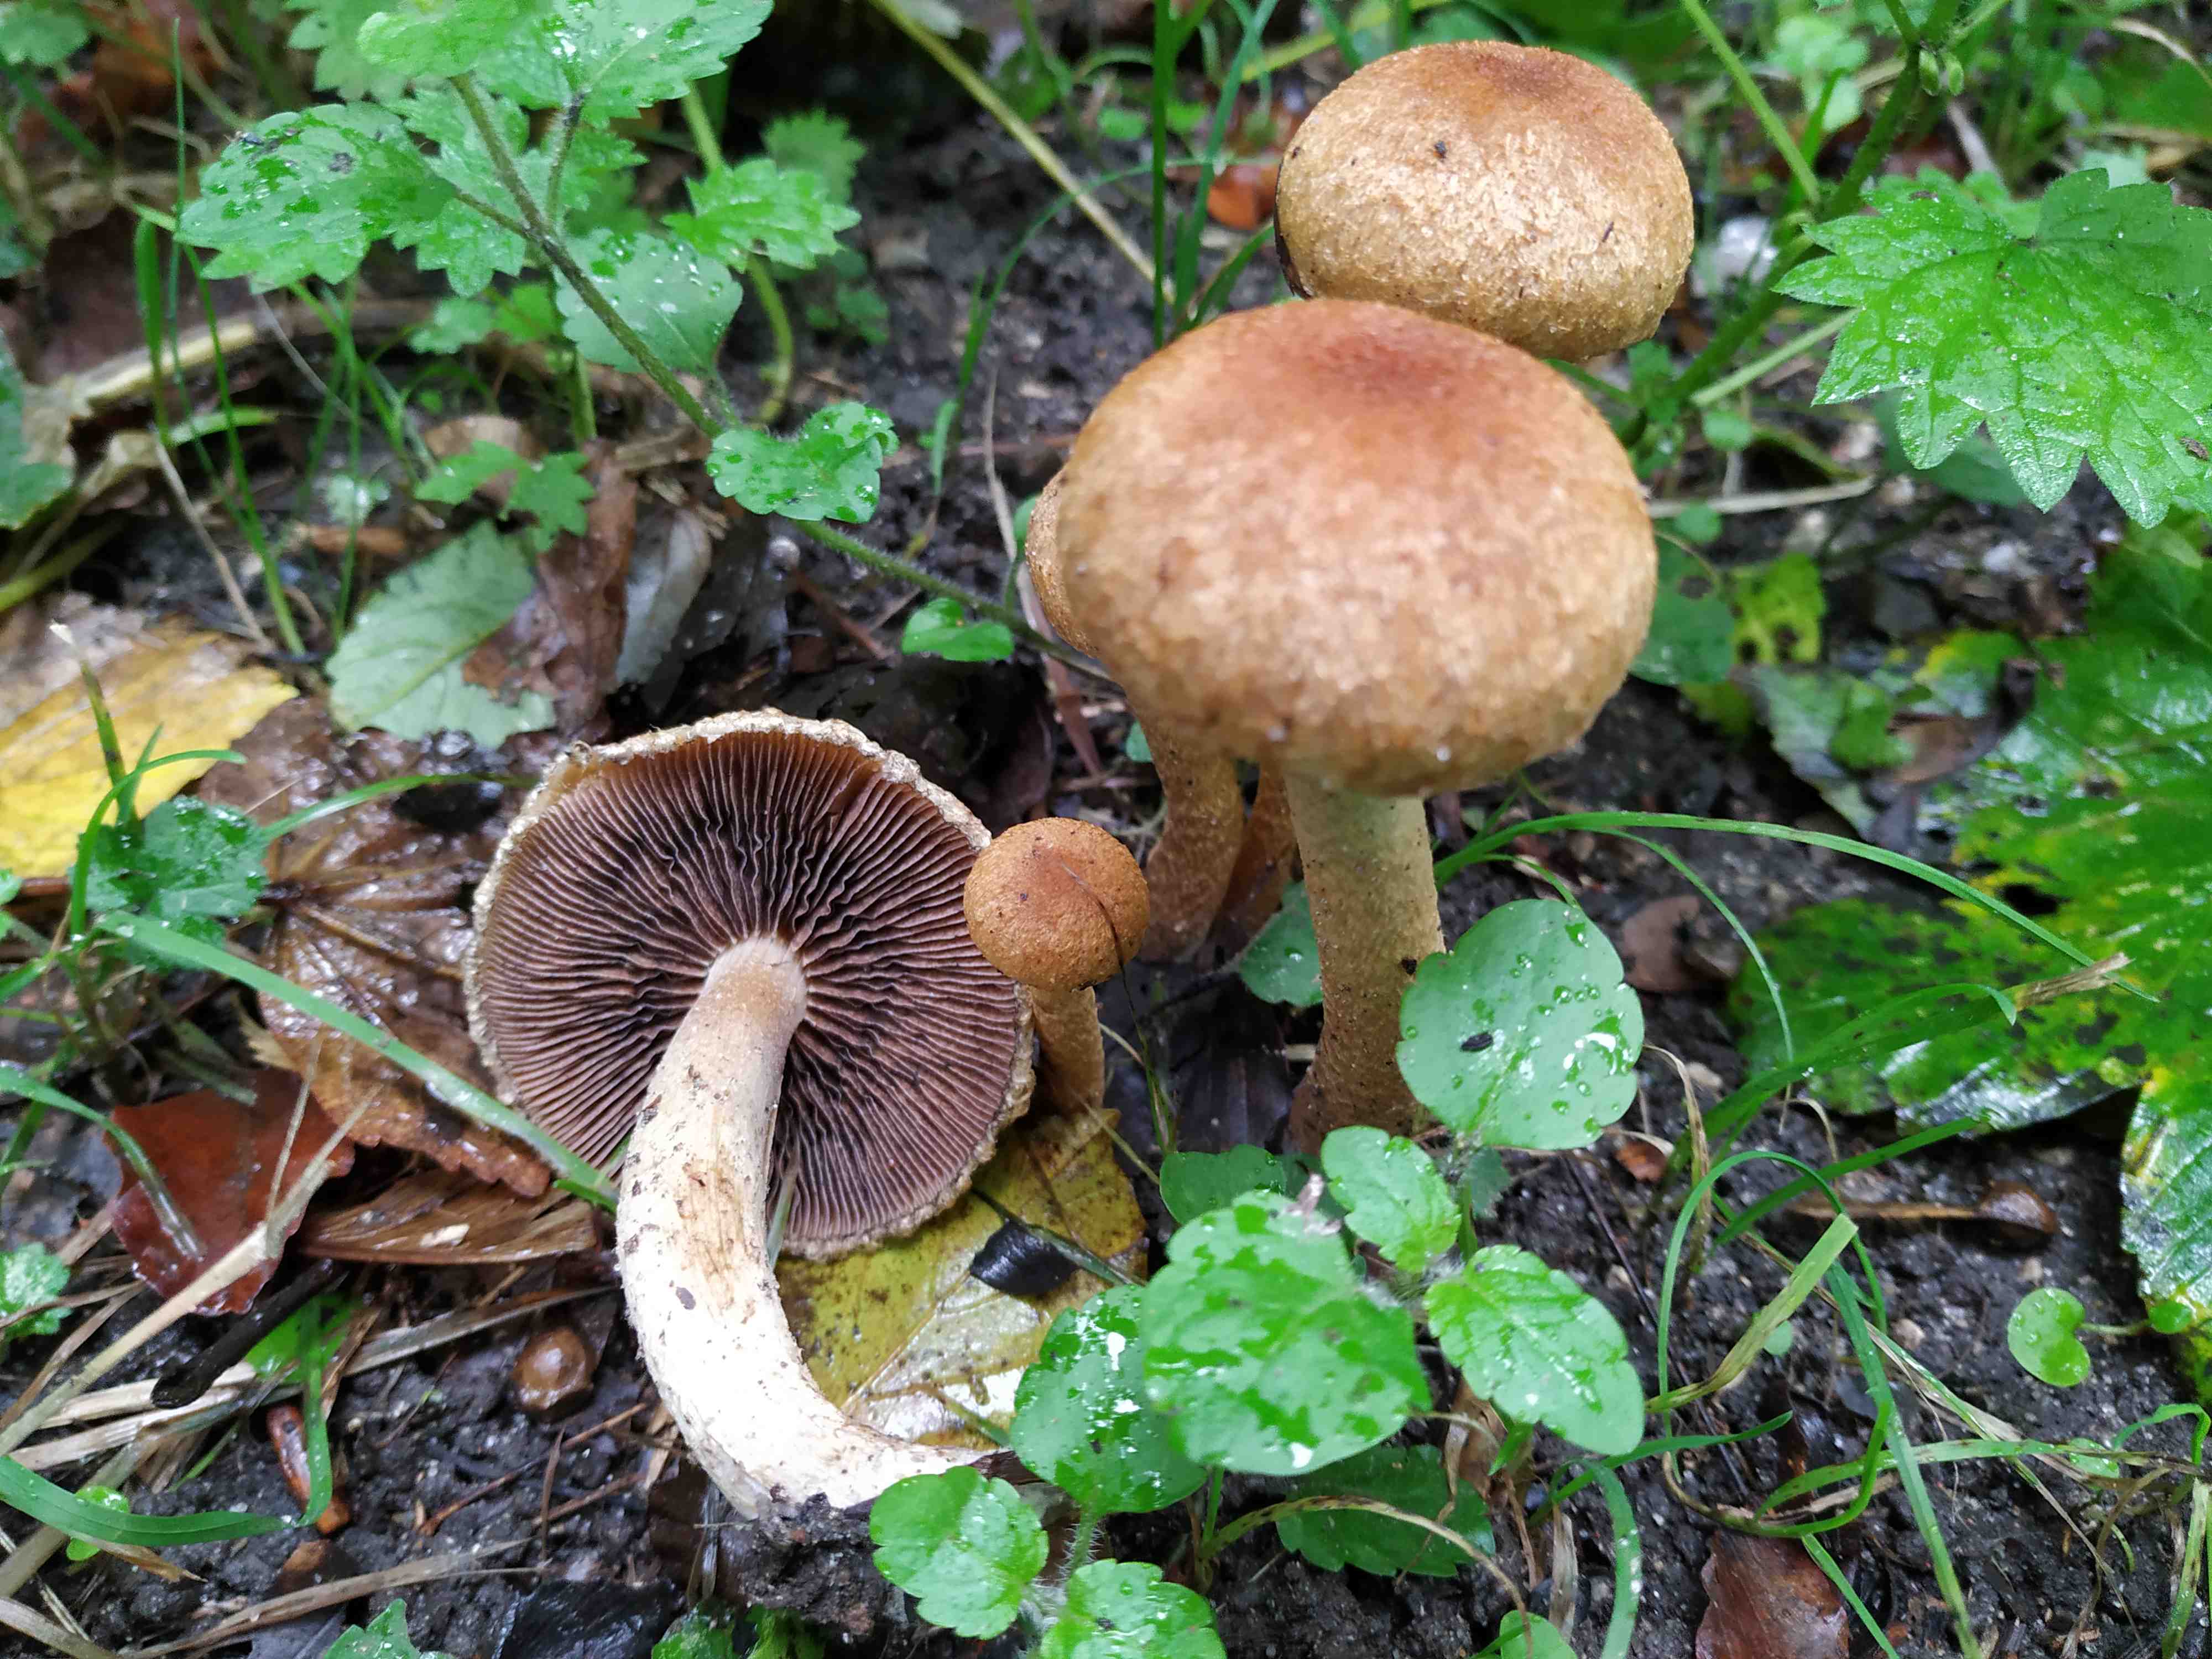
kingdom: Fungi
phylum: Basidiomycota
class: Agaricomycetes
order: Agaricales
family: Psathyrellaceae
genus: Lacrymaria
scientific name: Lacrymaria
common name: mørkhat
